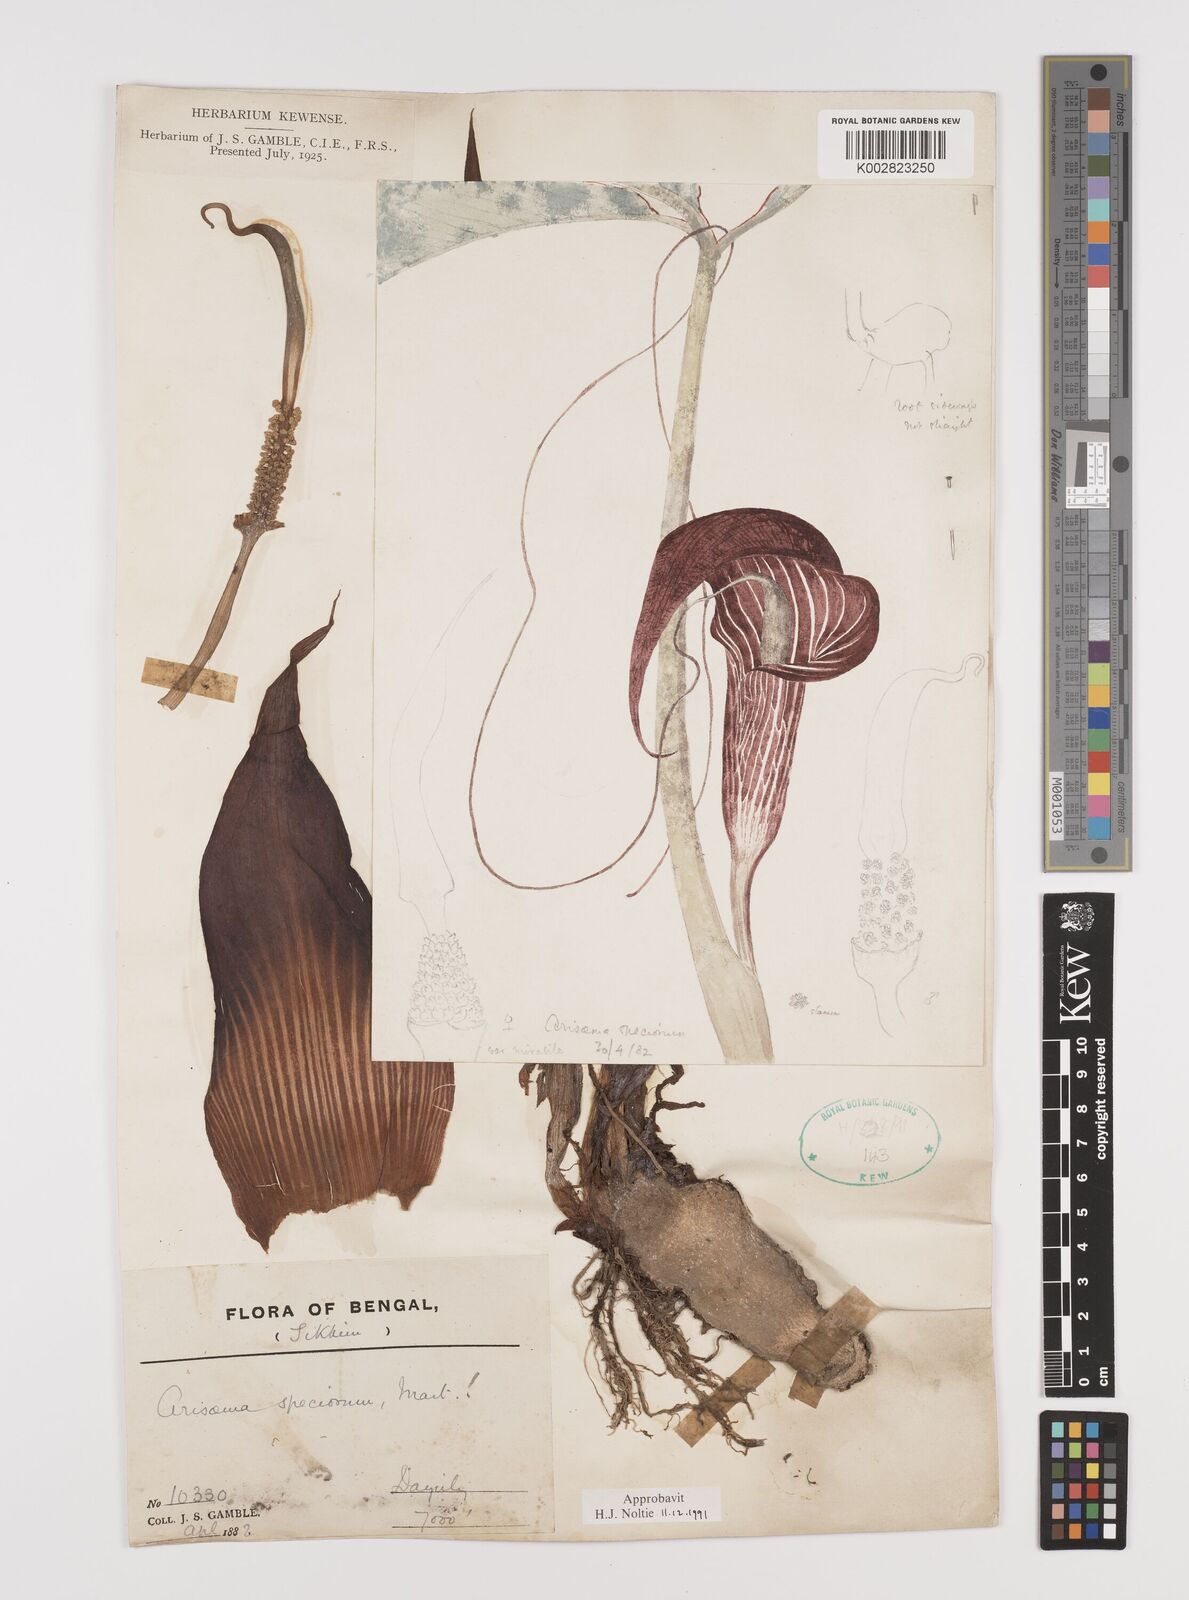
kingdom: Plantae
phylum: Tracheophyta
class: Liliopsida
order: Alismatales
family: Araceae
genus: Arisaema
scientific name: Arisaema speciosum
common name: Showy cobra-lily
